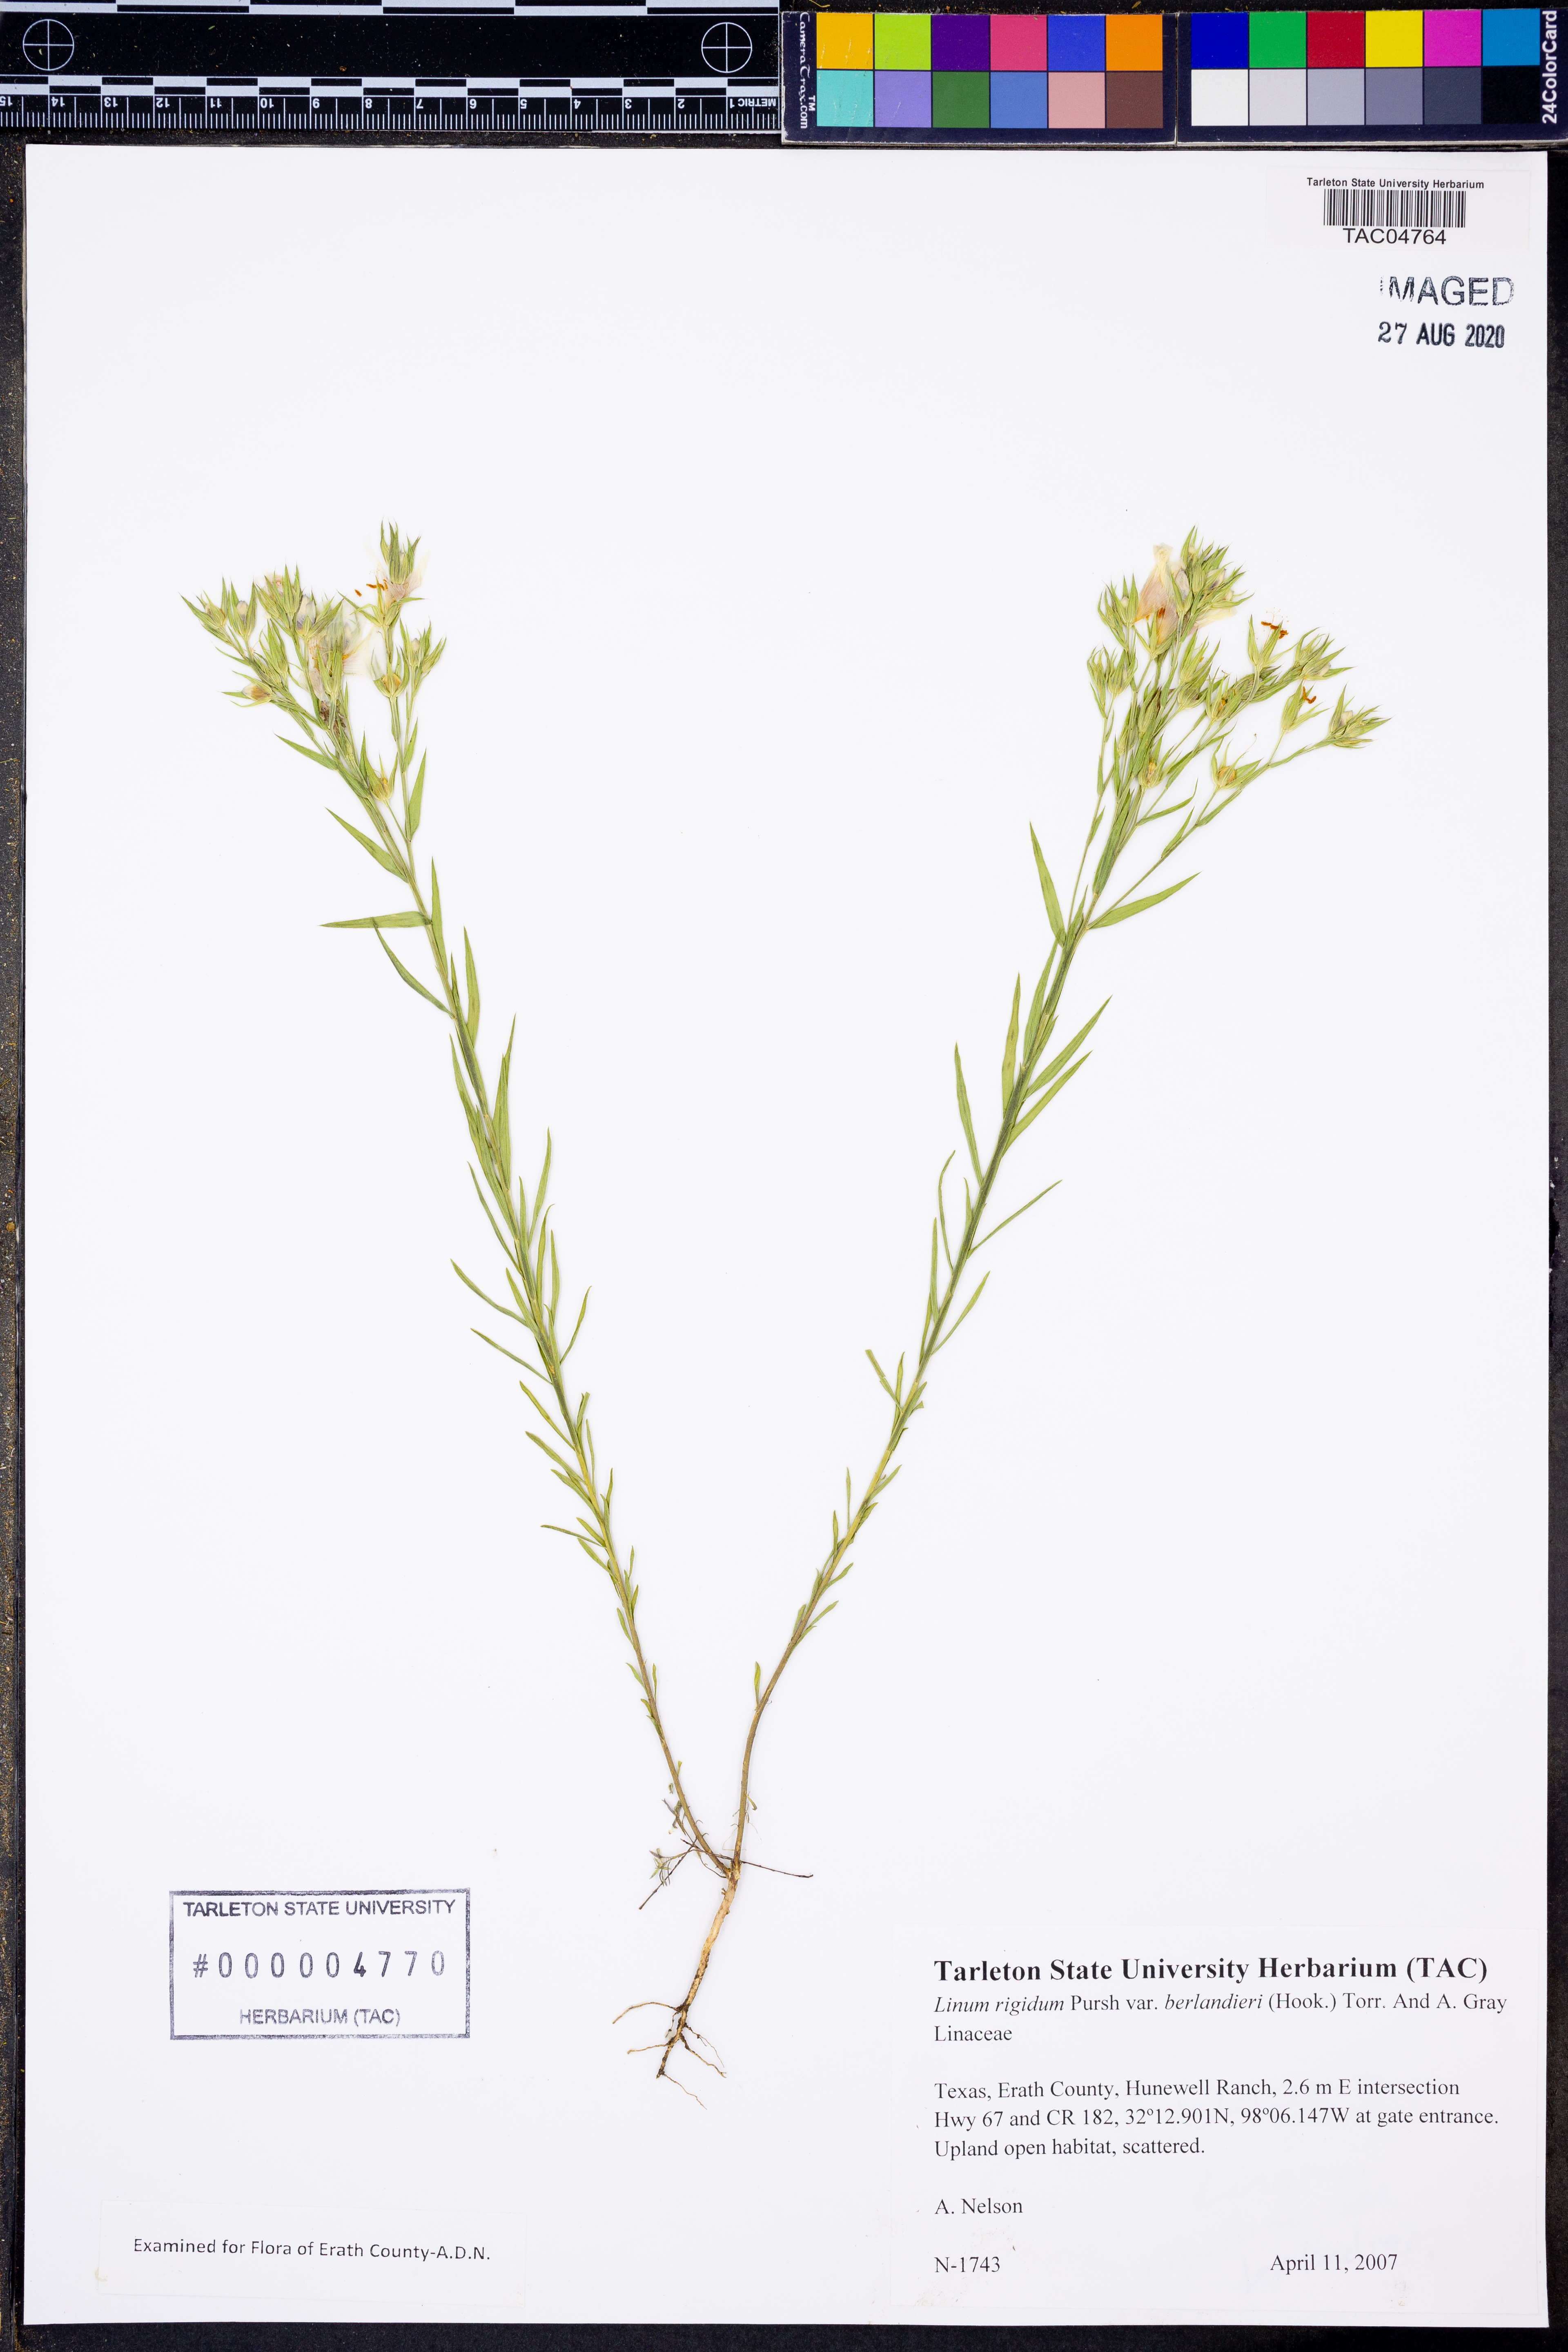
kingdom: Plantae
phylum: Tracheophyta
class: Magnoliopsida
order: Malpighiales
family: Linaceae
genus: Linum
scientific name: Linum berlandieri
